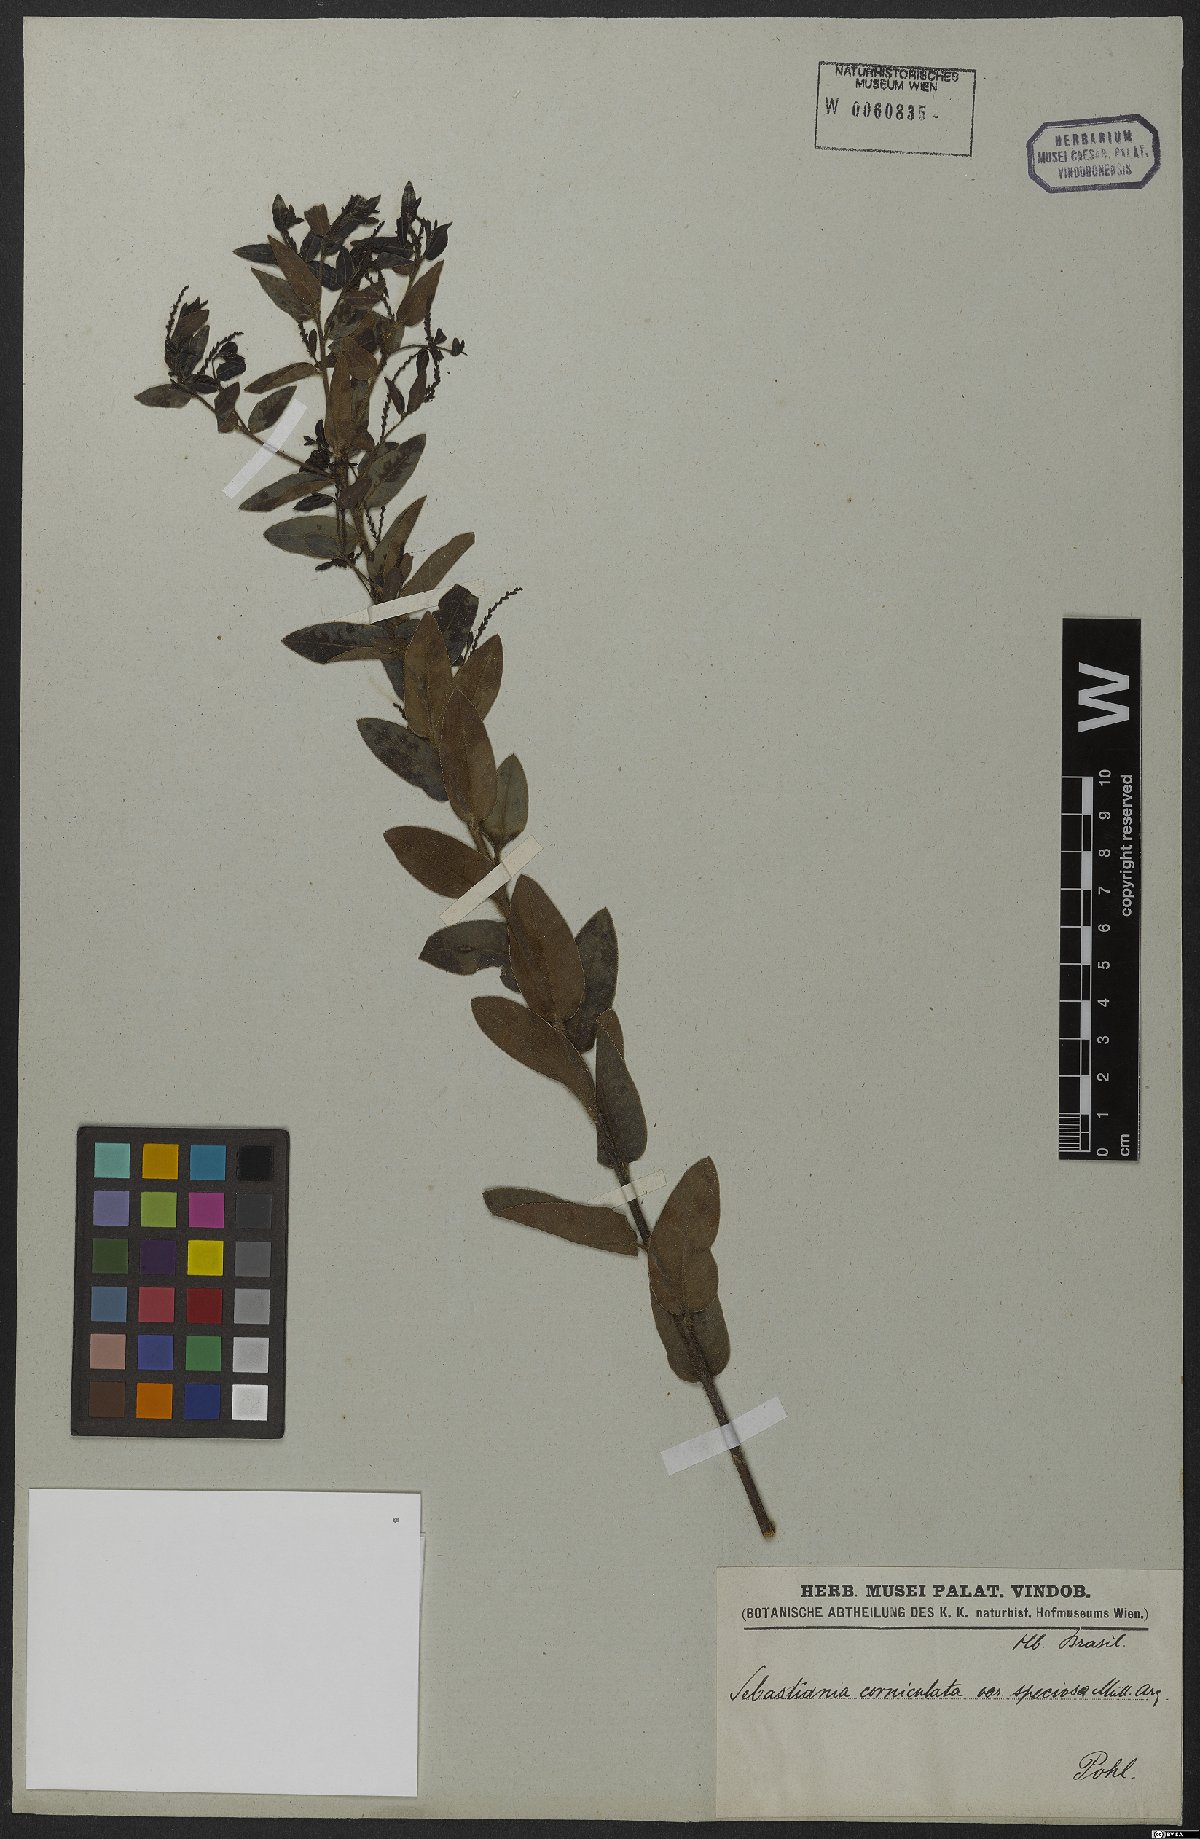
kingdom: Plantae
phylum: Tracheophyta
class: Magnoliopsida
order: Malpighiales
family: Euphorbiaceae
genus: Microstachys
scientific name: Microstachys hispida
